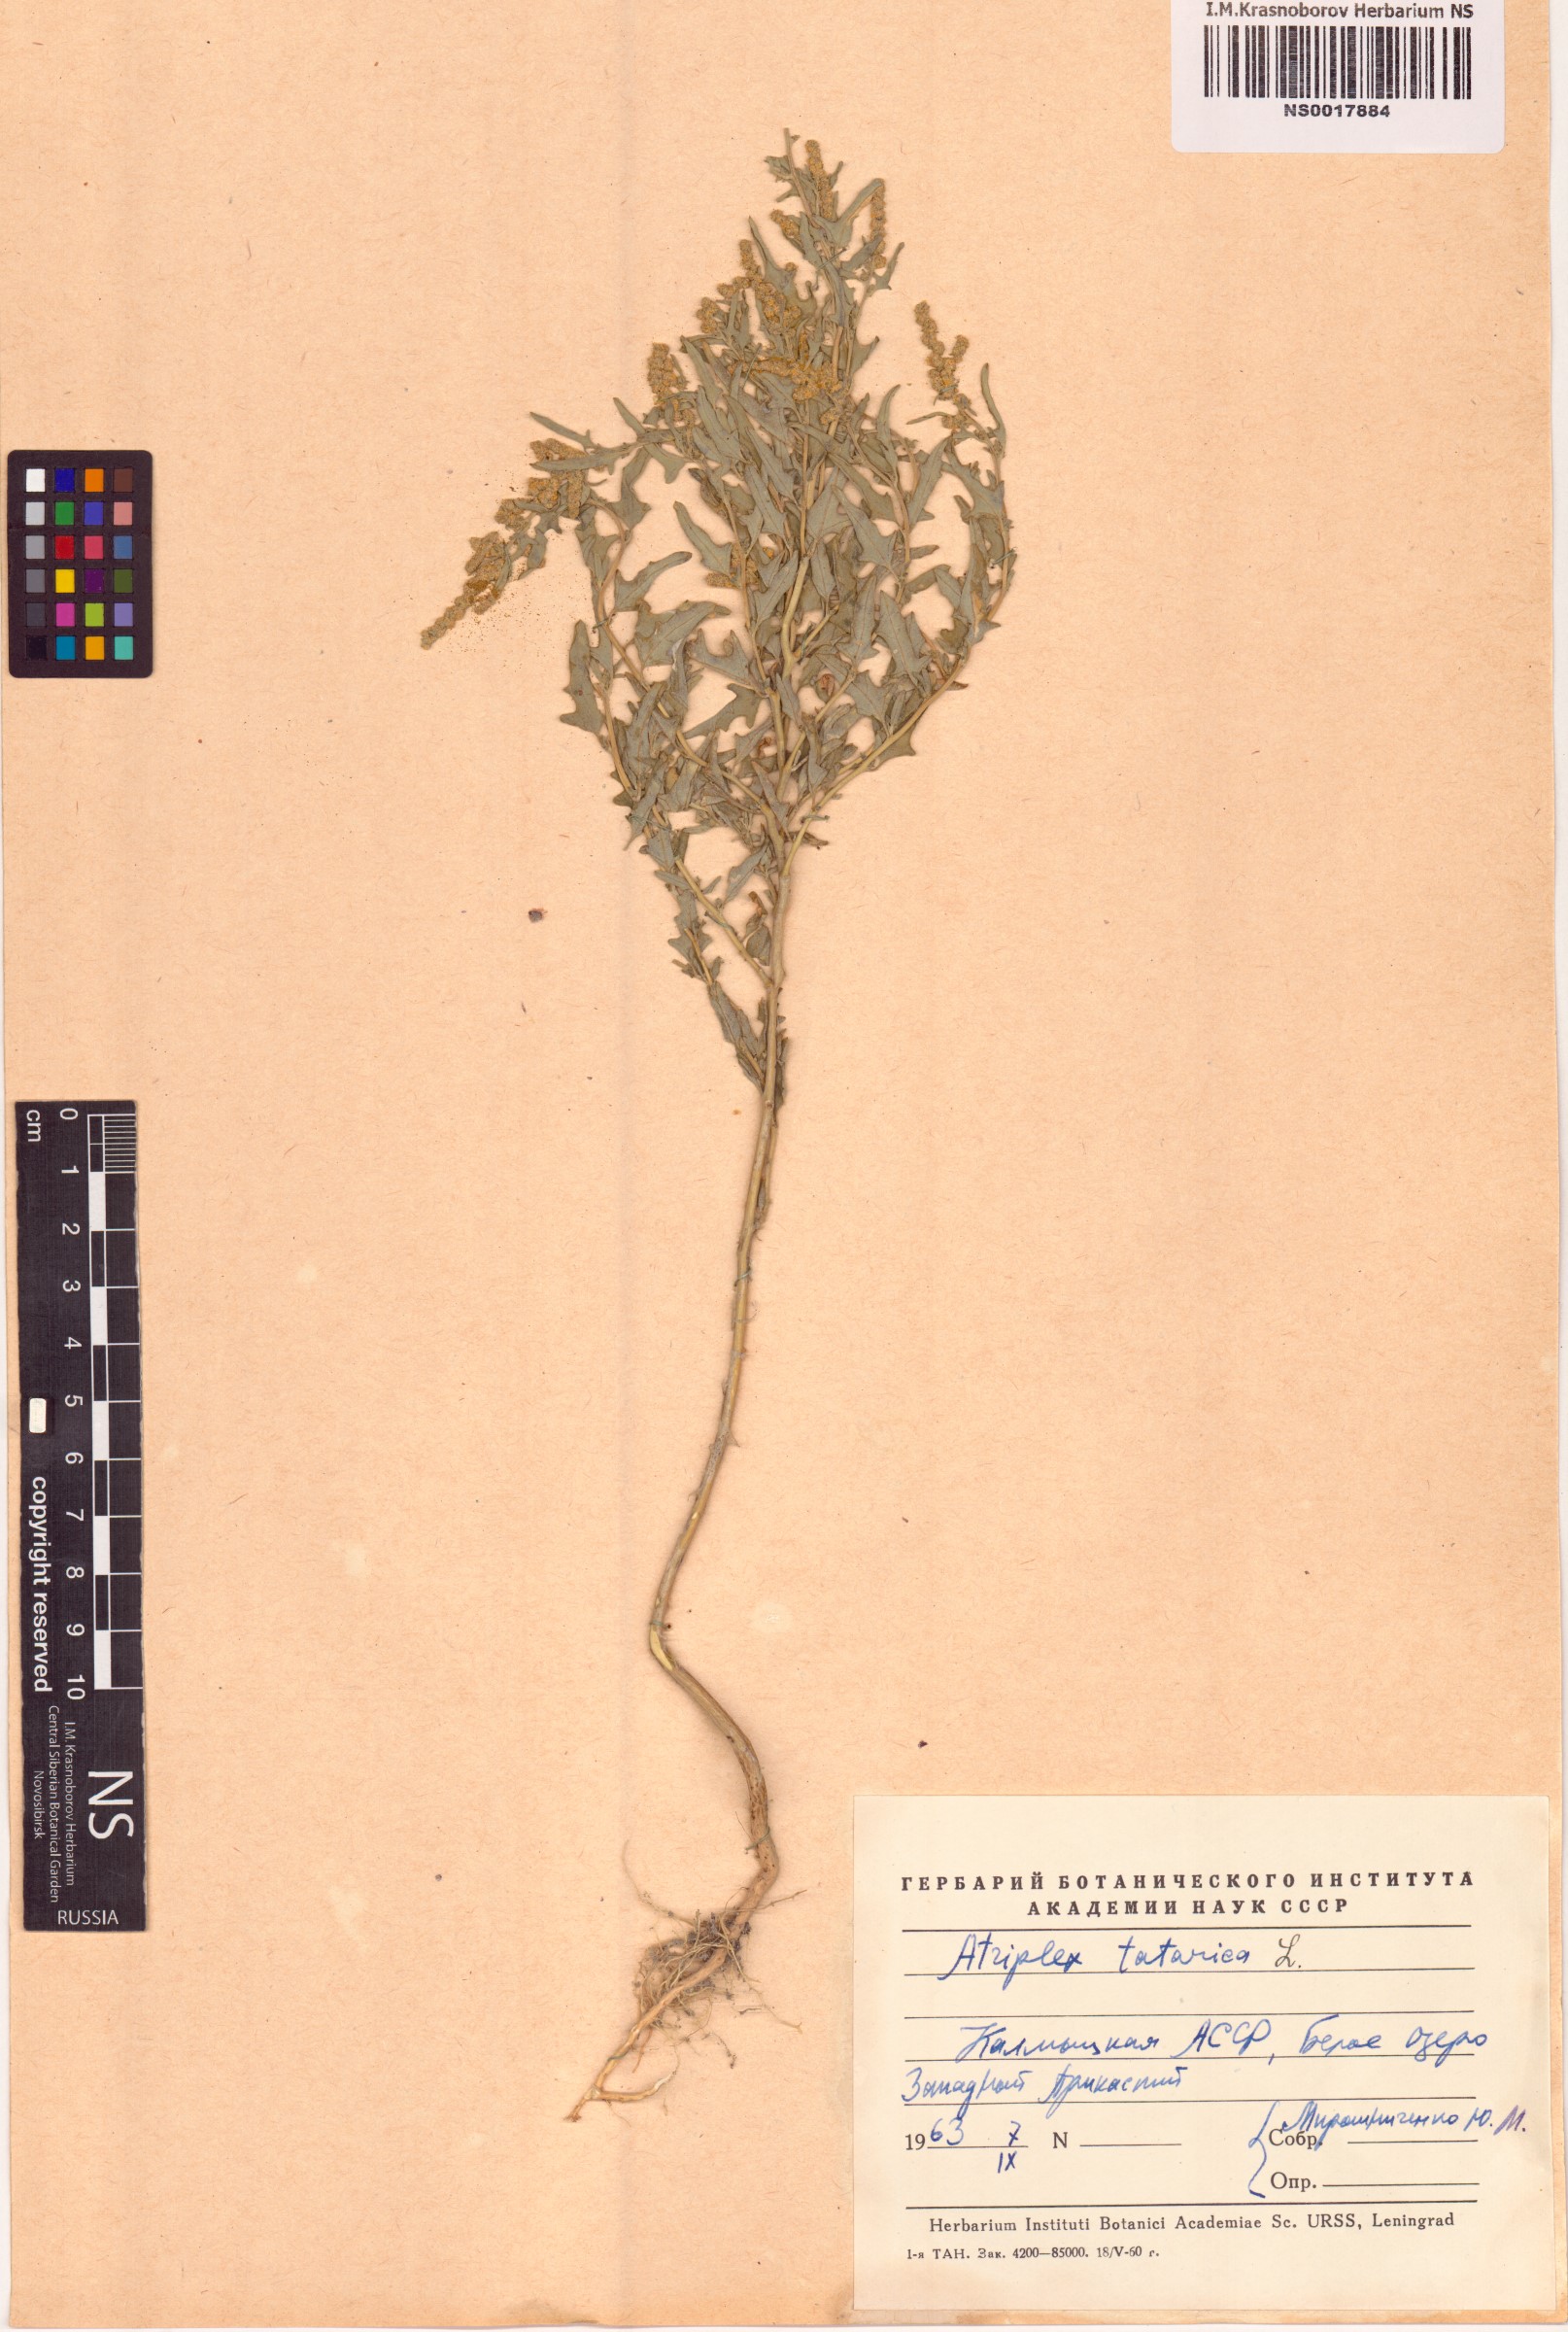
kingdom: Plantae
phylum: Tracheophyta
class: Magnoliopsida
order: Caryophyllales
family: Amaranthaceae
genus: Atriplex
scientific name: Atriplex tatarica
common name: Tatarian orache
